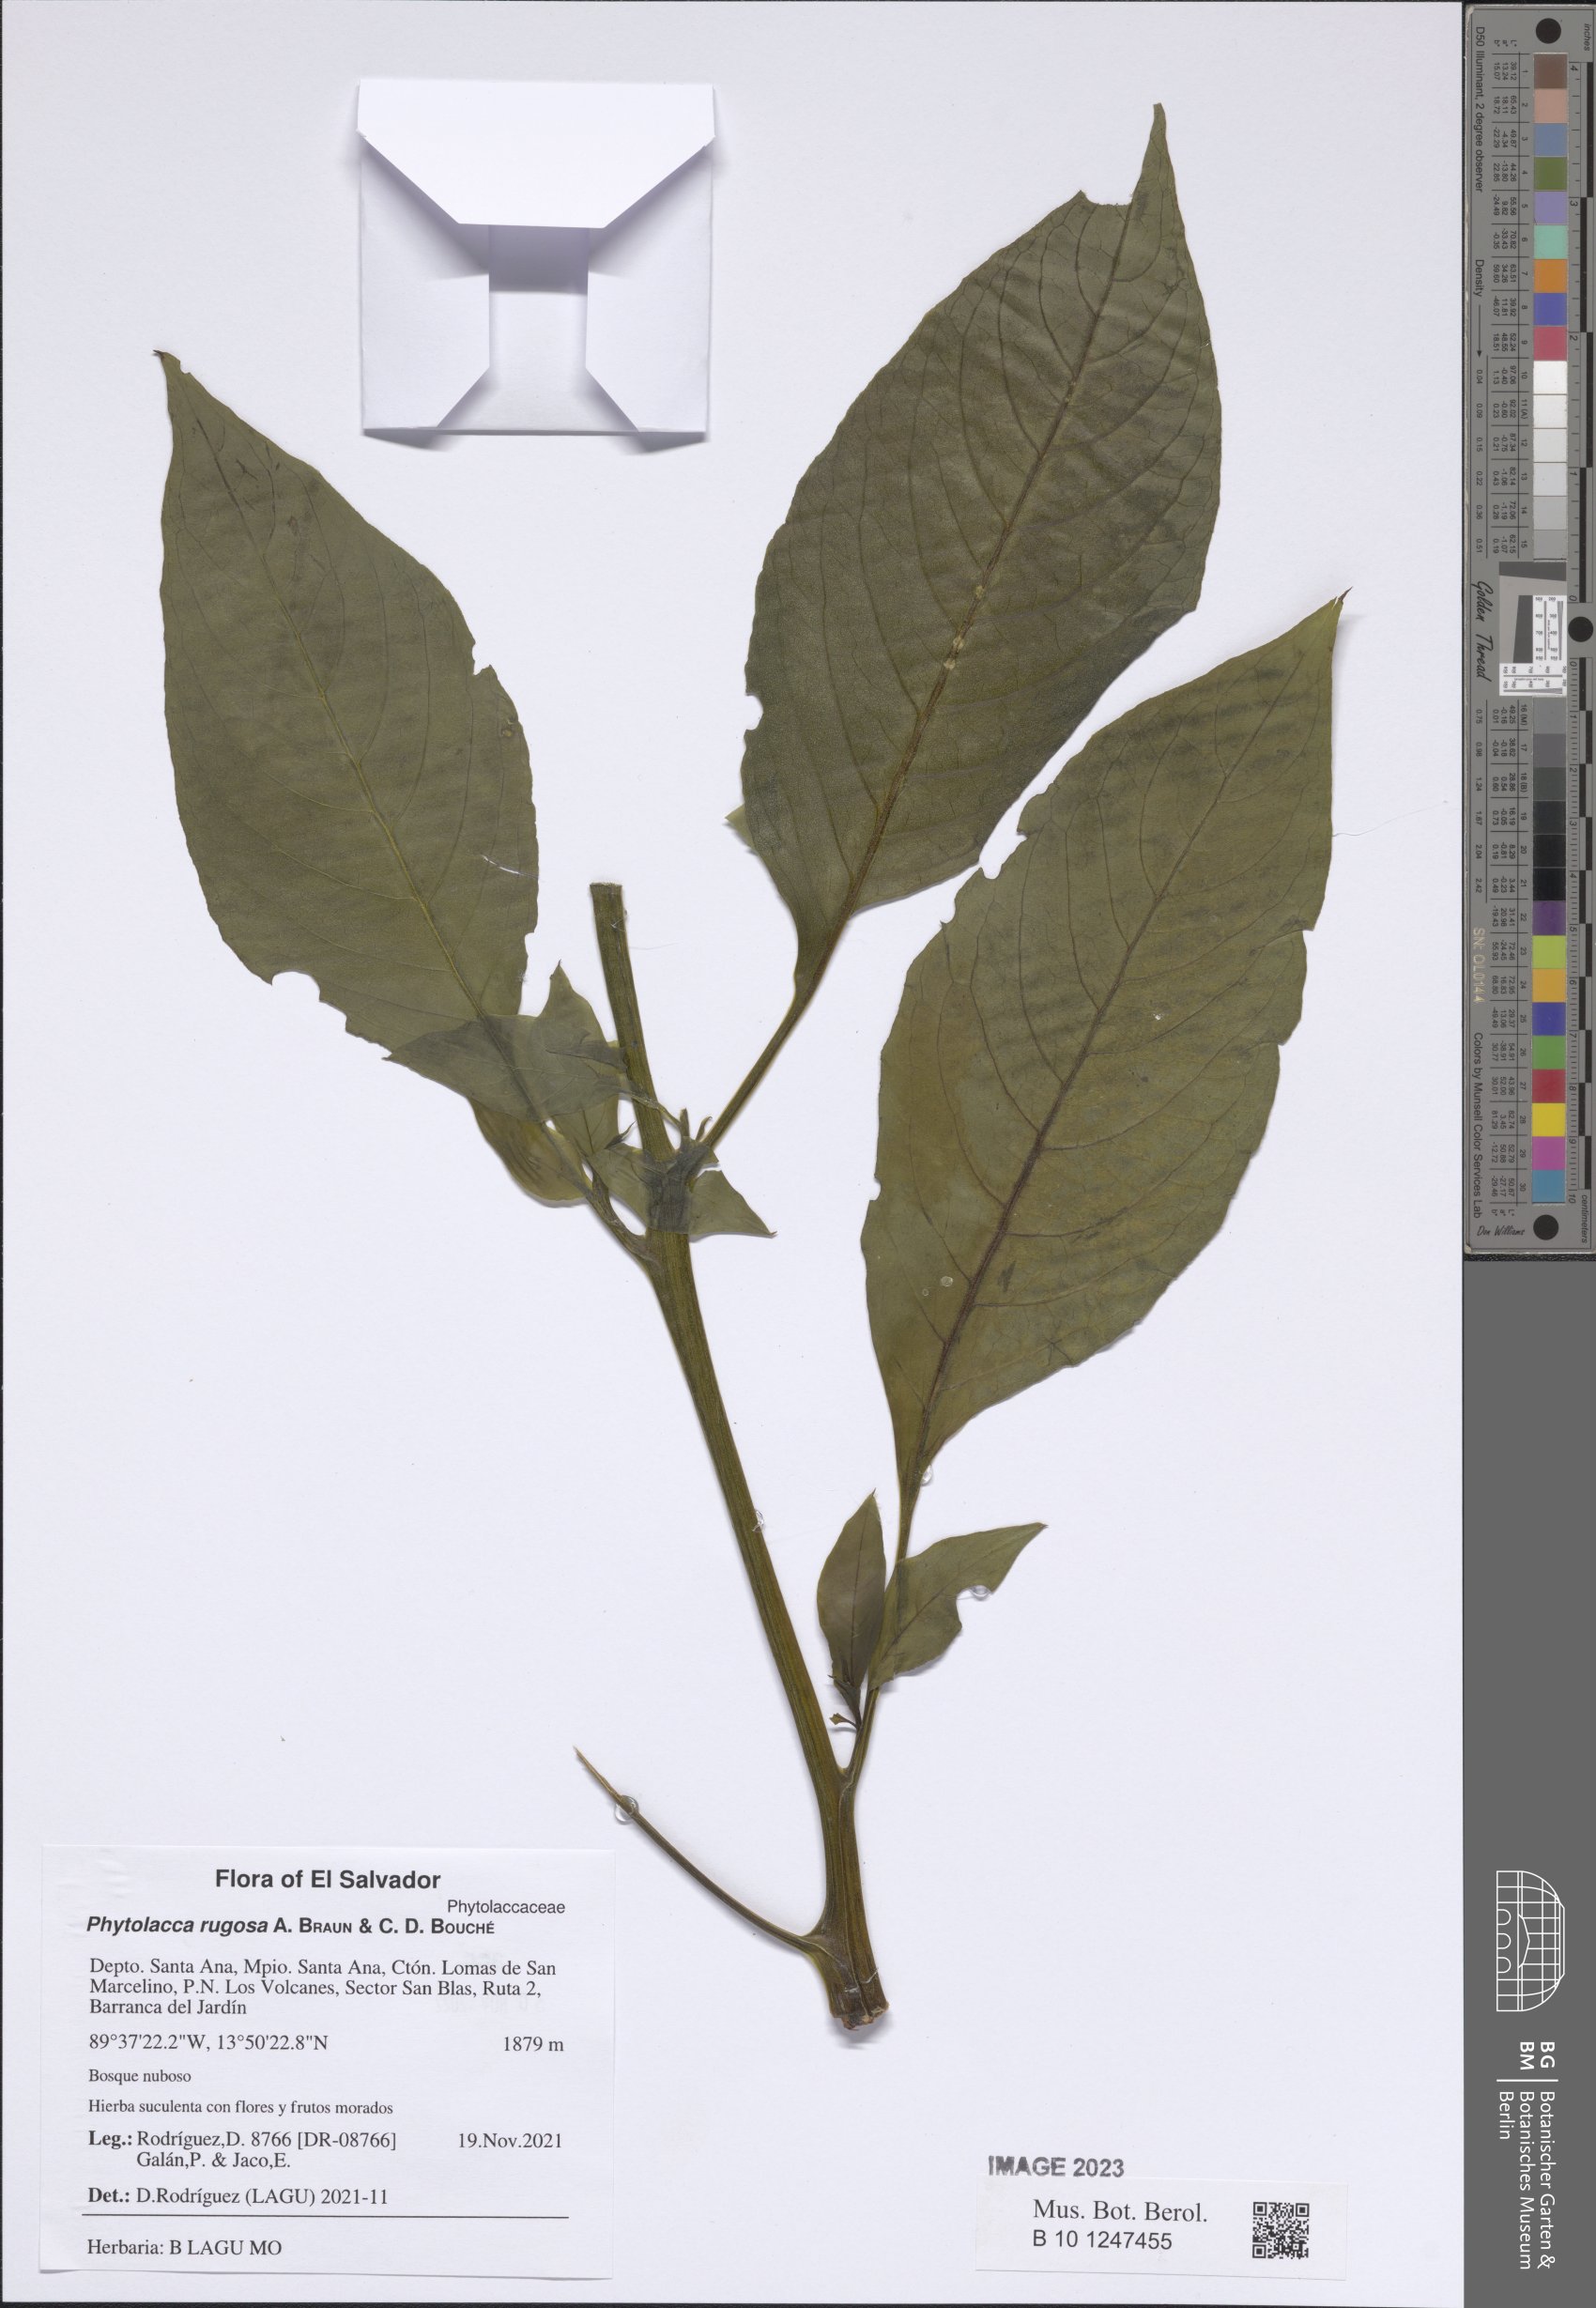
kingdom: Plantae
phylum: Tracheophyta
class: Magnoliopsida
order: Caryophyllales
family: Phytolaccaceae
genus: Phytolacca
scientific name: Phytolacca rugosa
